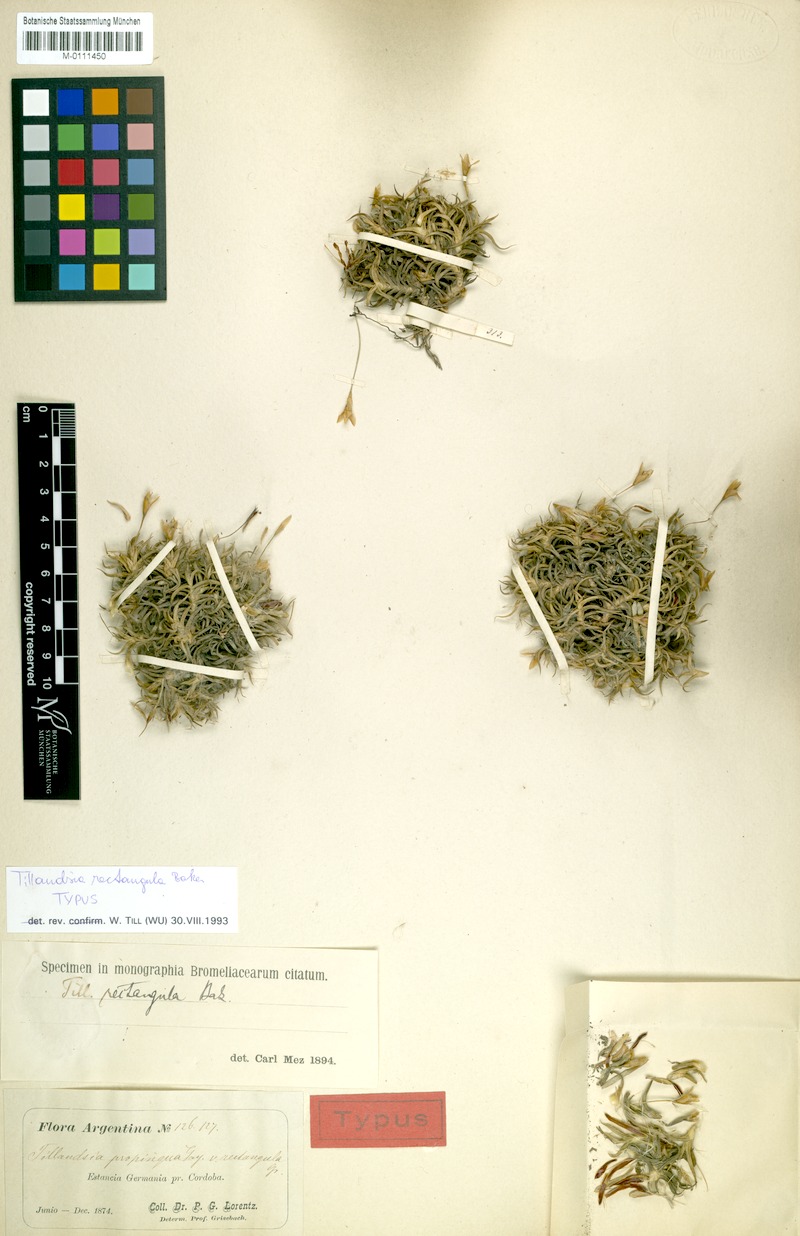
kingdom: Plantae
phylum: Tracheophyta
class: Liliopsida
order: Poales
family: Bromeliaceae
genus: Tillandsia
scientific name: Tillandsia rectangula
